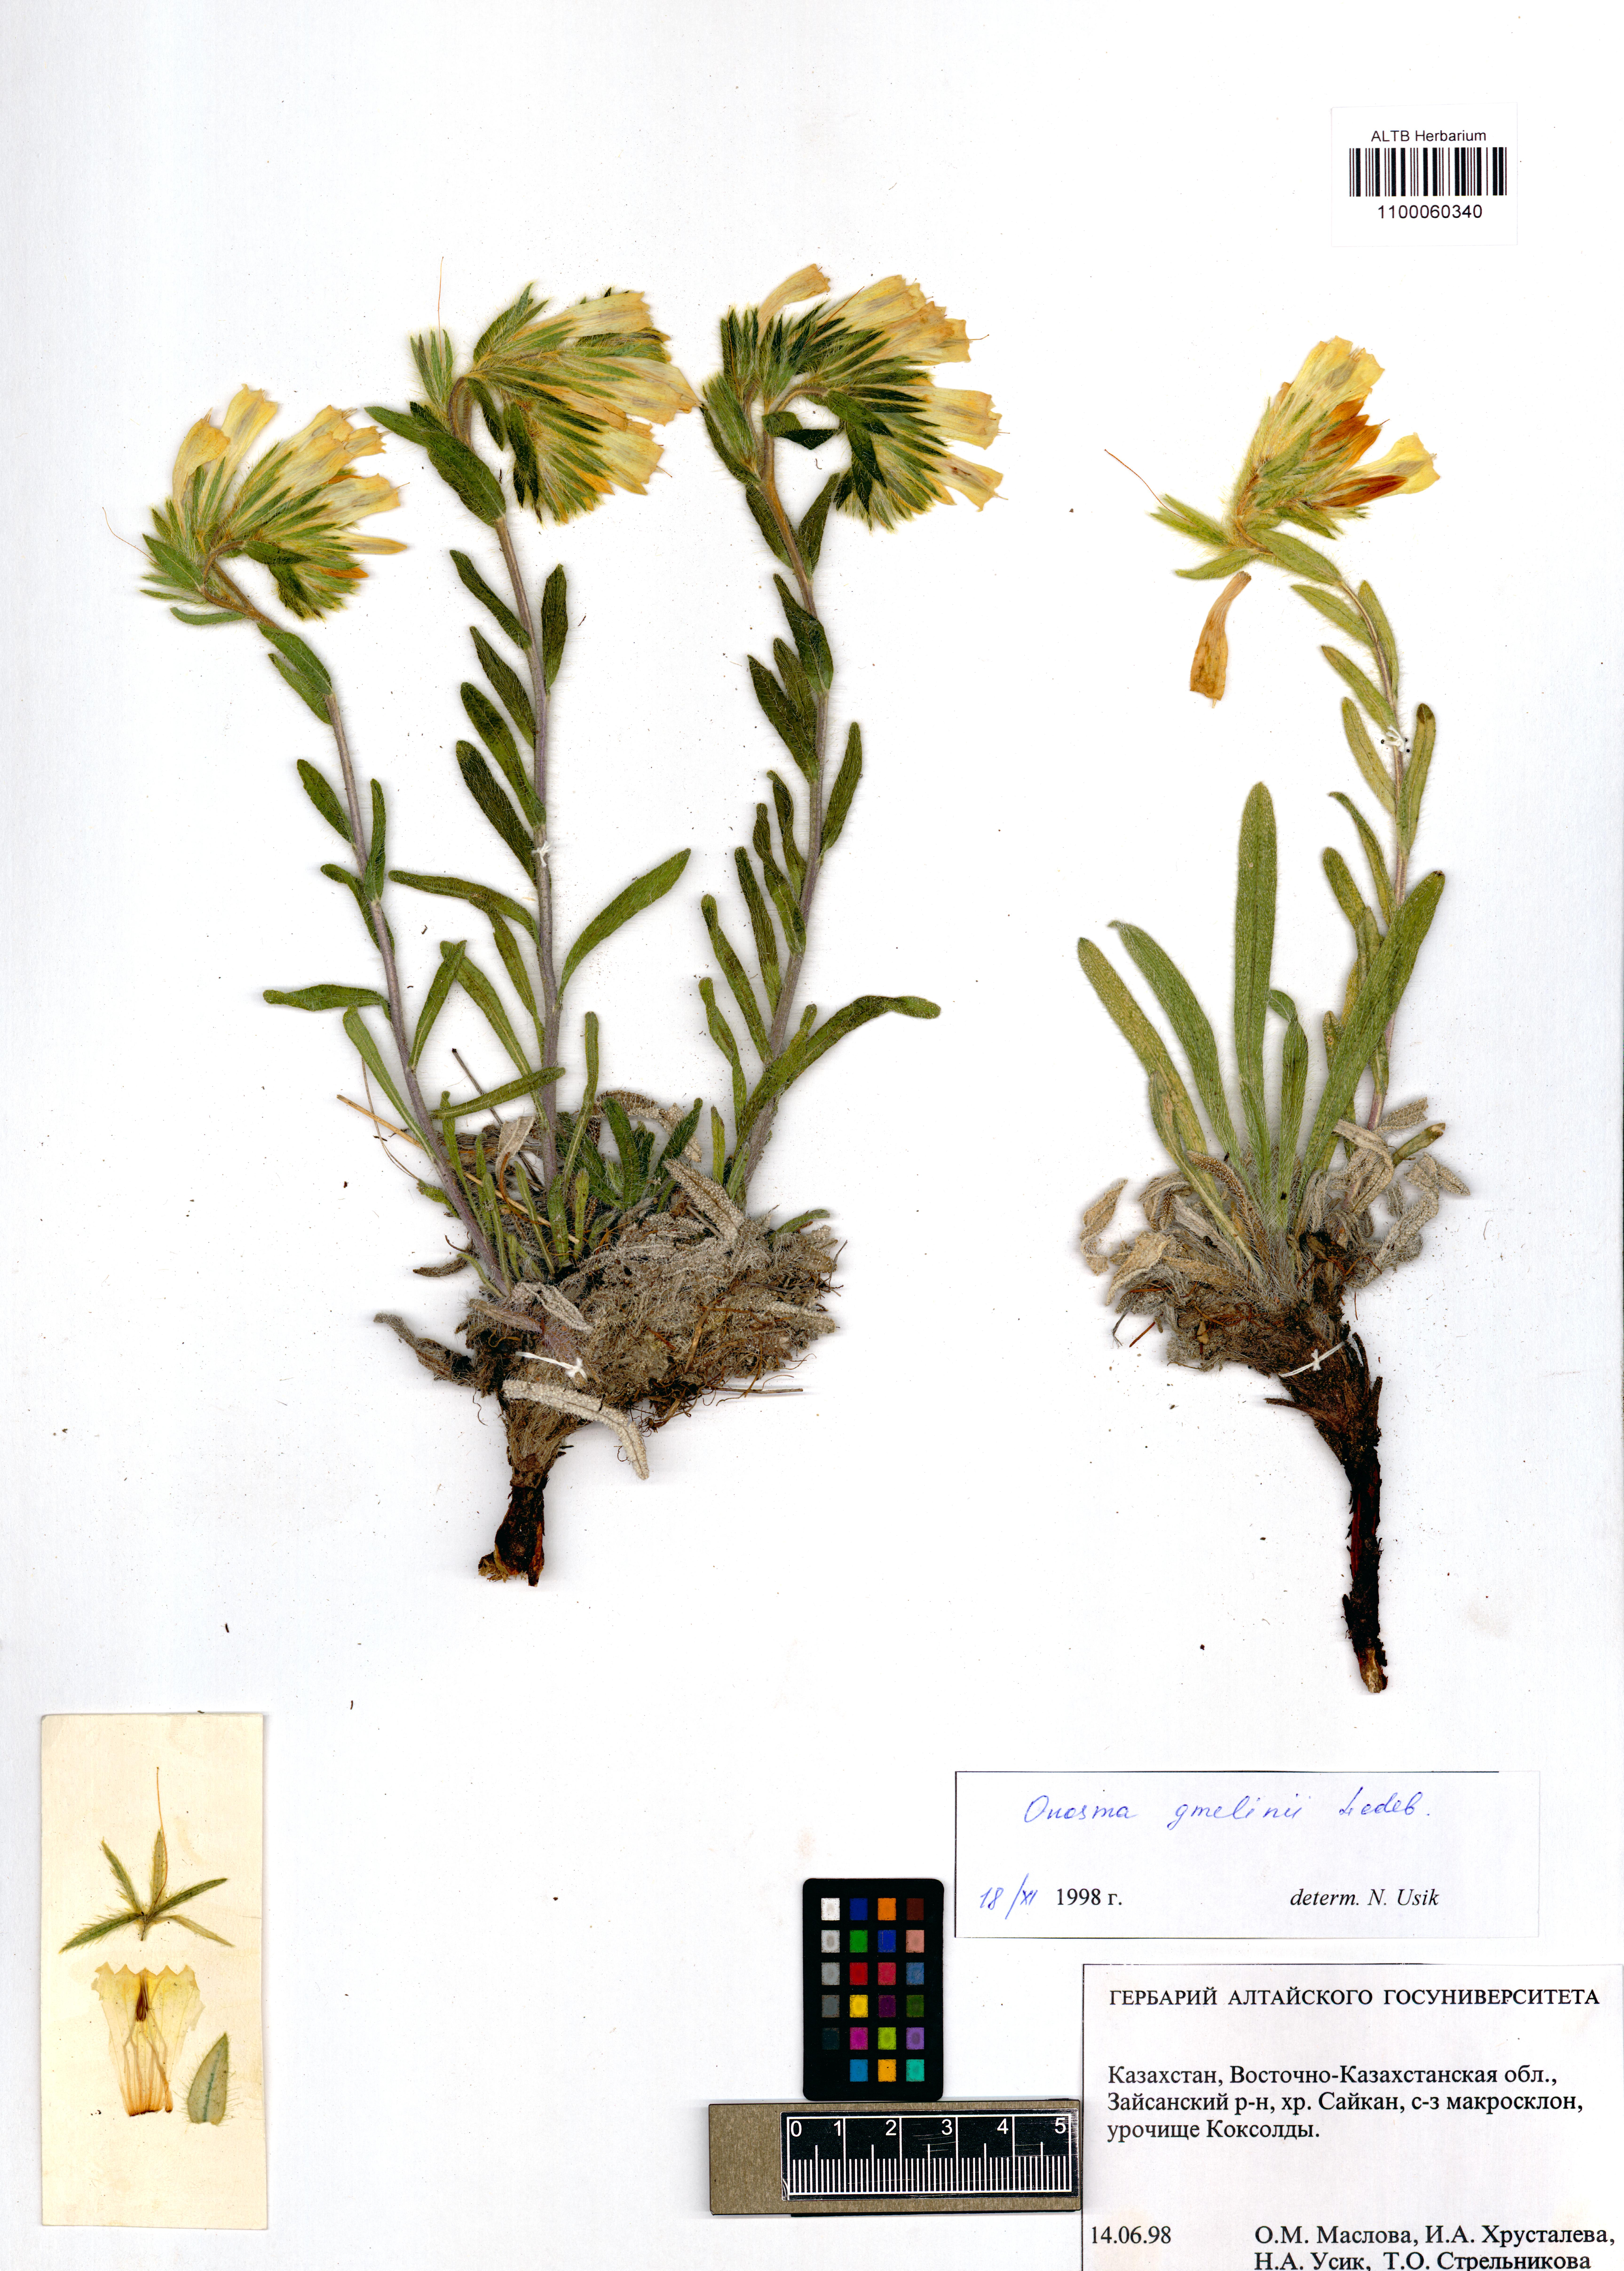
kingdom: Plantae
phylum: Tracheophyta
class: Magnoliopsida
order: Boraginales
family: Boraginaceae
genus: Onosma
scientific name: Onosma gmelinii
